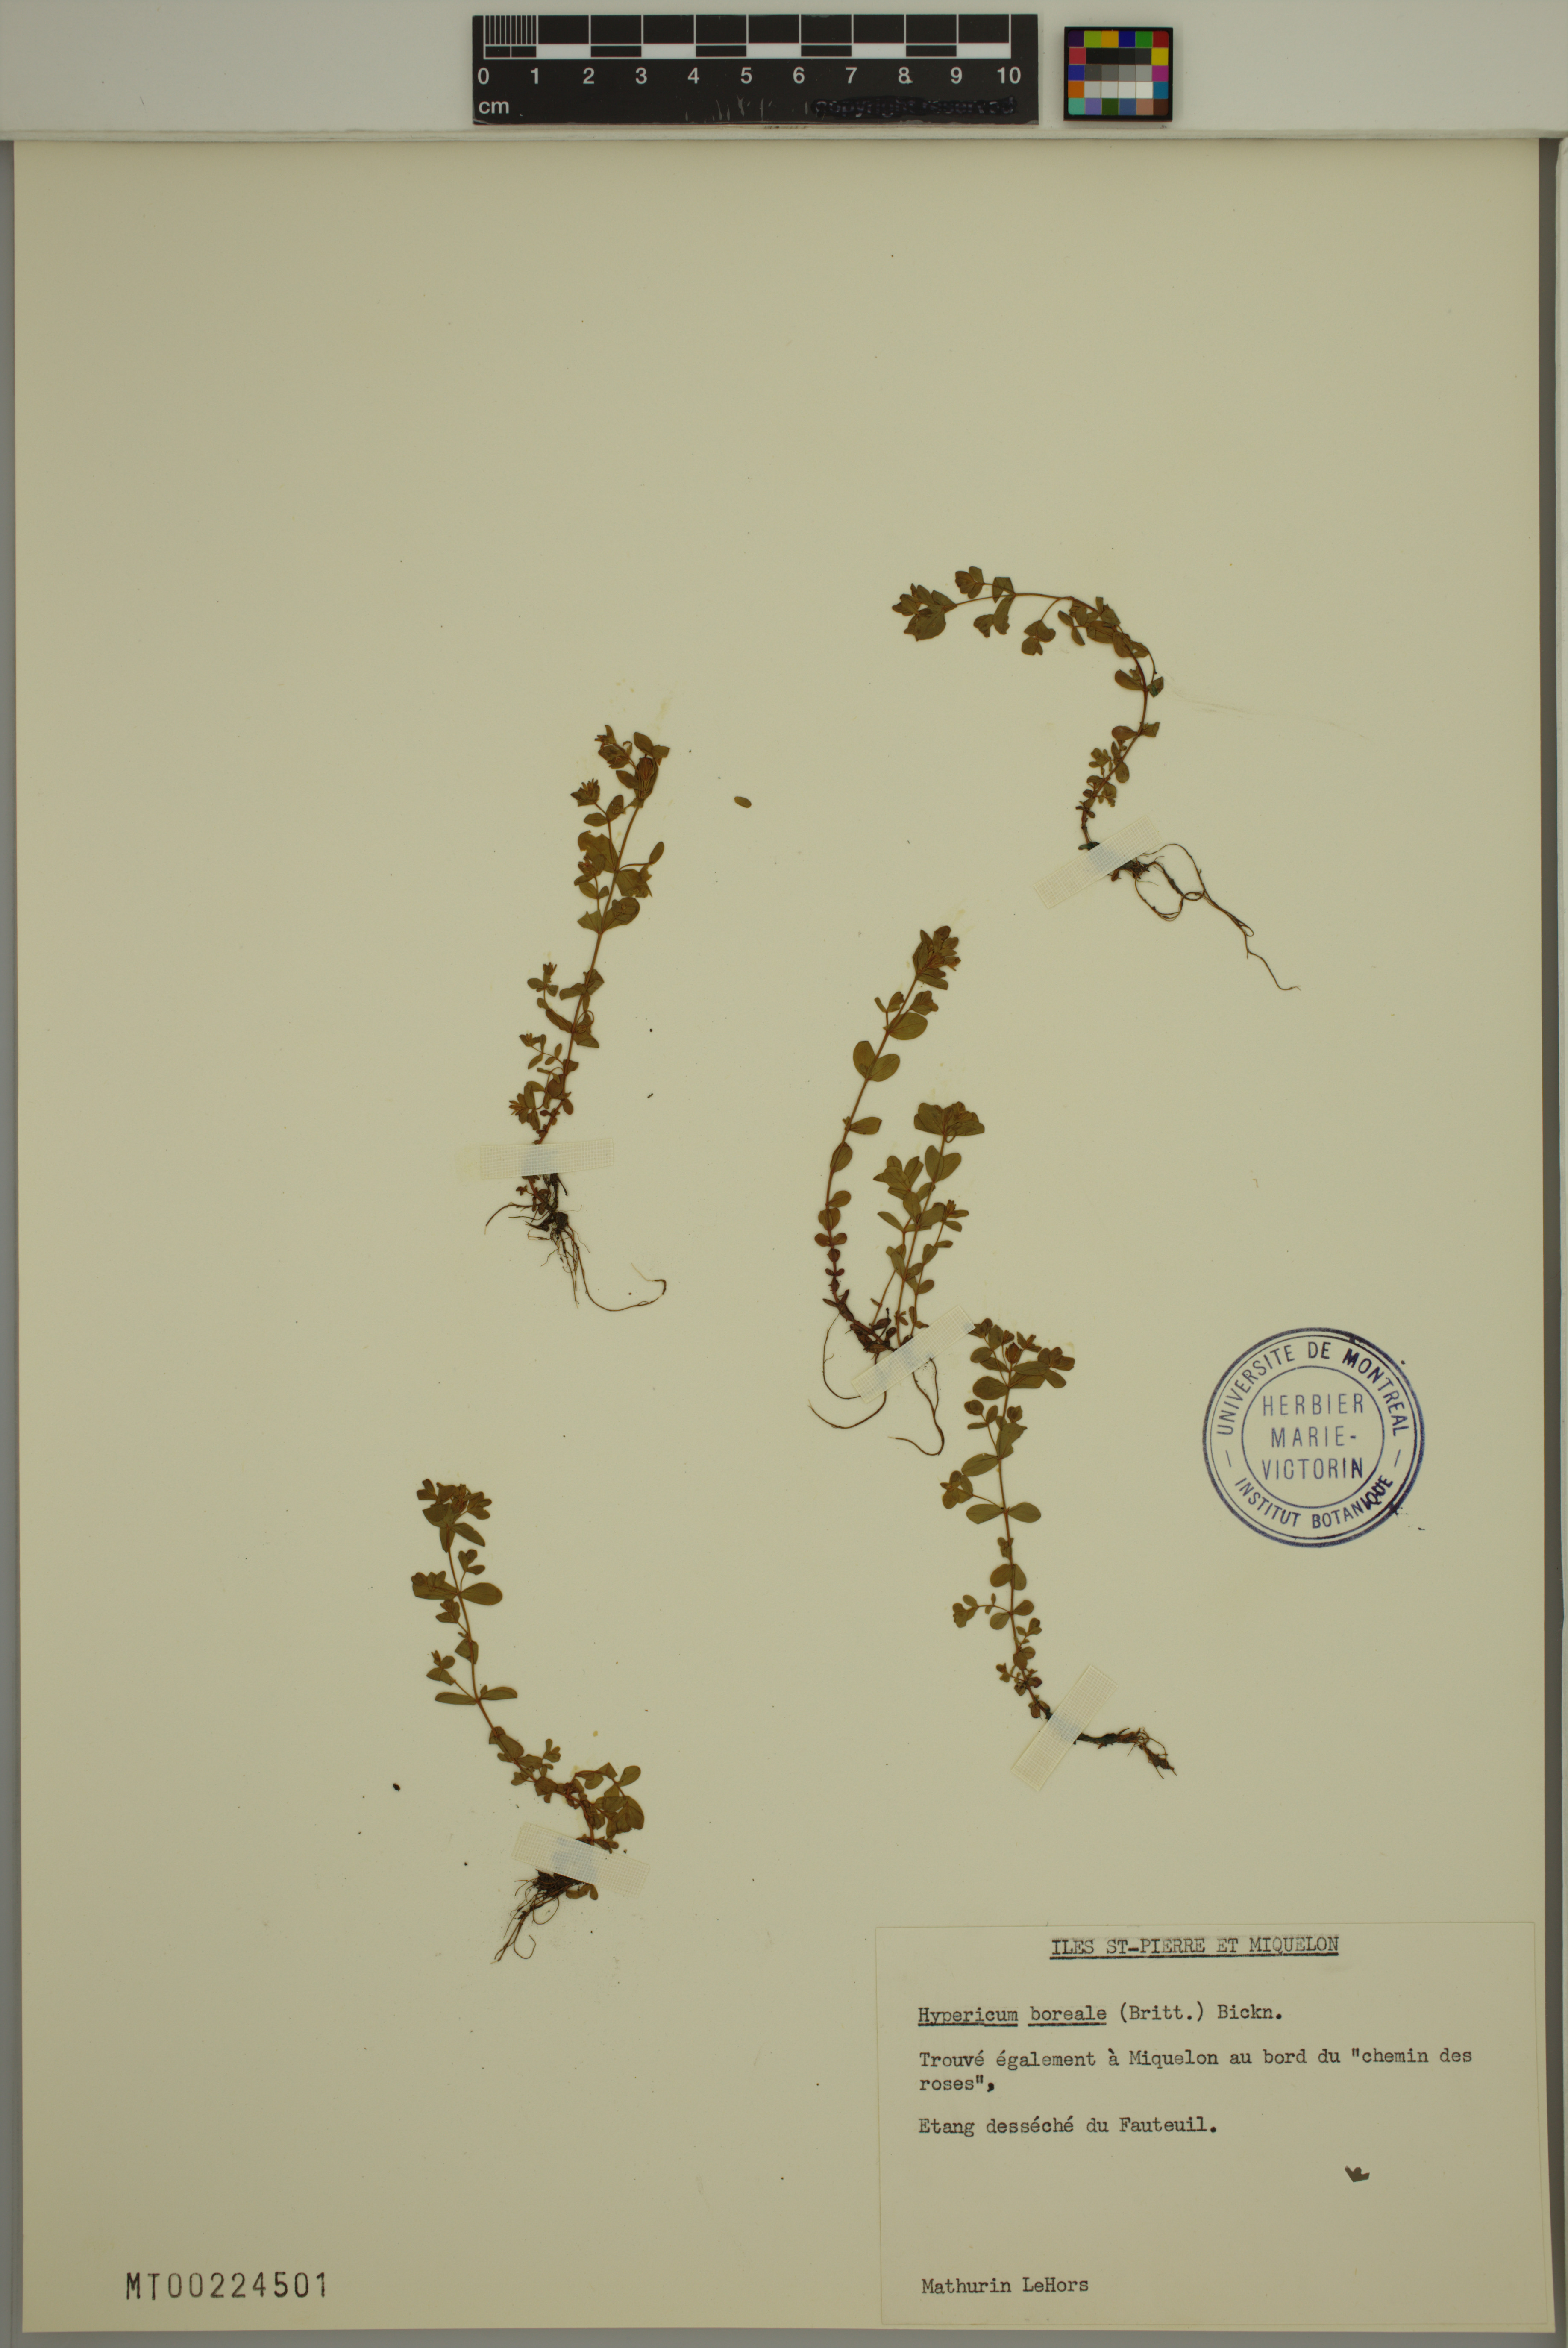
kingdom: Plantae
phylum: Tracheophyta
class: Magnoliopsida
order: Malpighiales
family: Hypericaceae
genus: Hypericum
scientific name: Hypericum boreale
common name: Northern bog st. john's-wort
